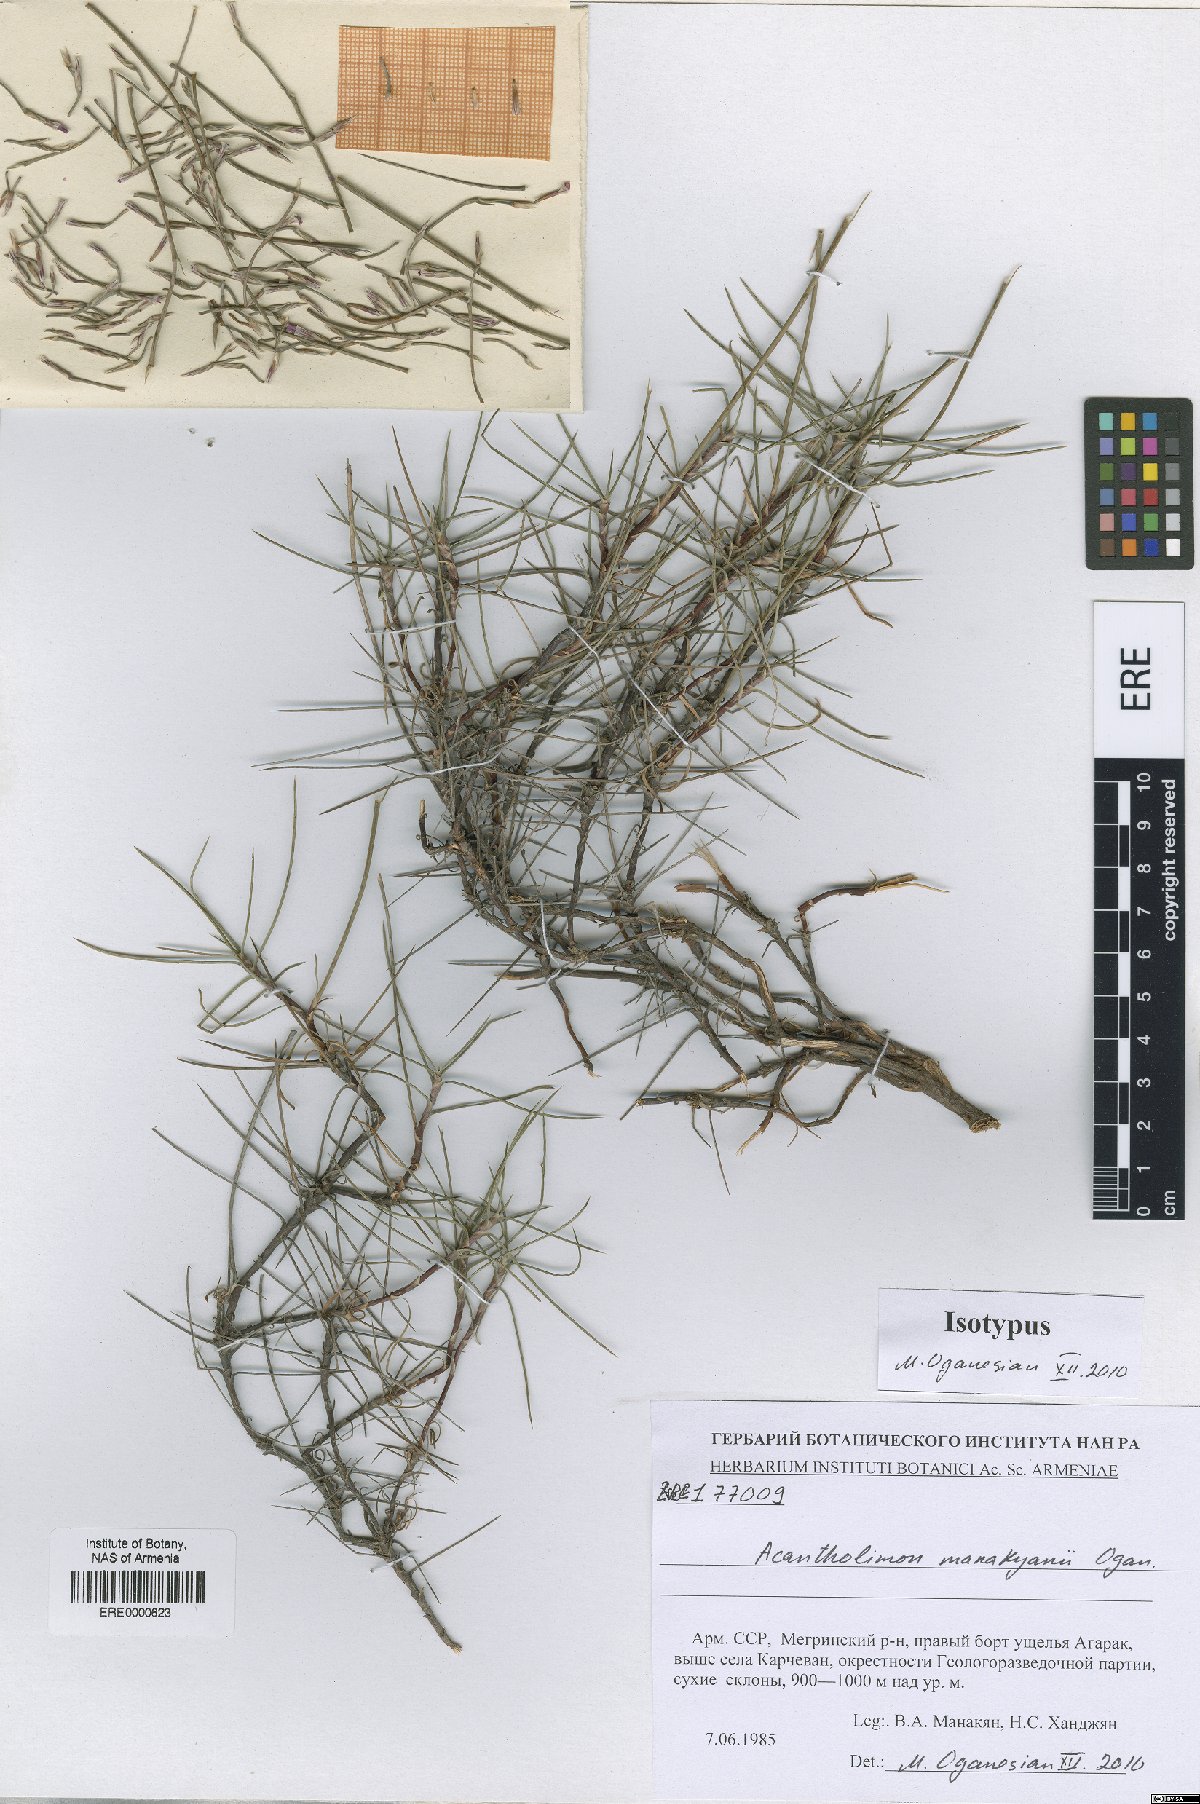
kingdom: Plantae
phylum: Tracheophyta
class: Magnoliopsida
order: Caryophyllales
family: Plumbaginaceae
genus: Acantholimon
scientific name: Acantholimon manakyanii
